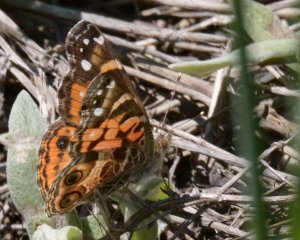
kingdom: Animalia
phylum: Arthropoda
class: Insecta
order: Lepidoptera
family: Nymphalidae
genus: Vanessa
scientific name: Vanessa virginiensis
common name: American Lady
